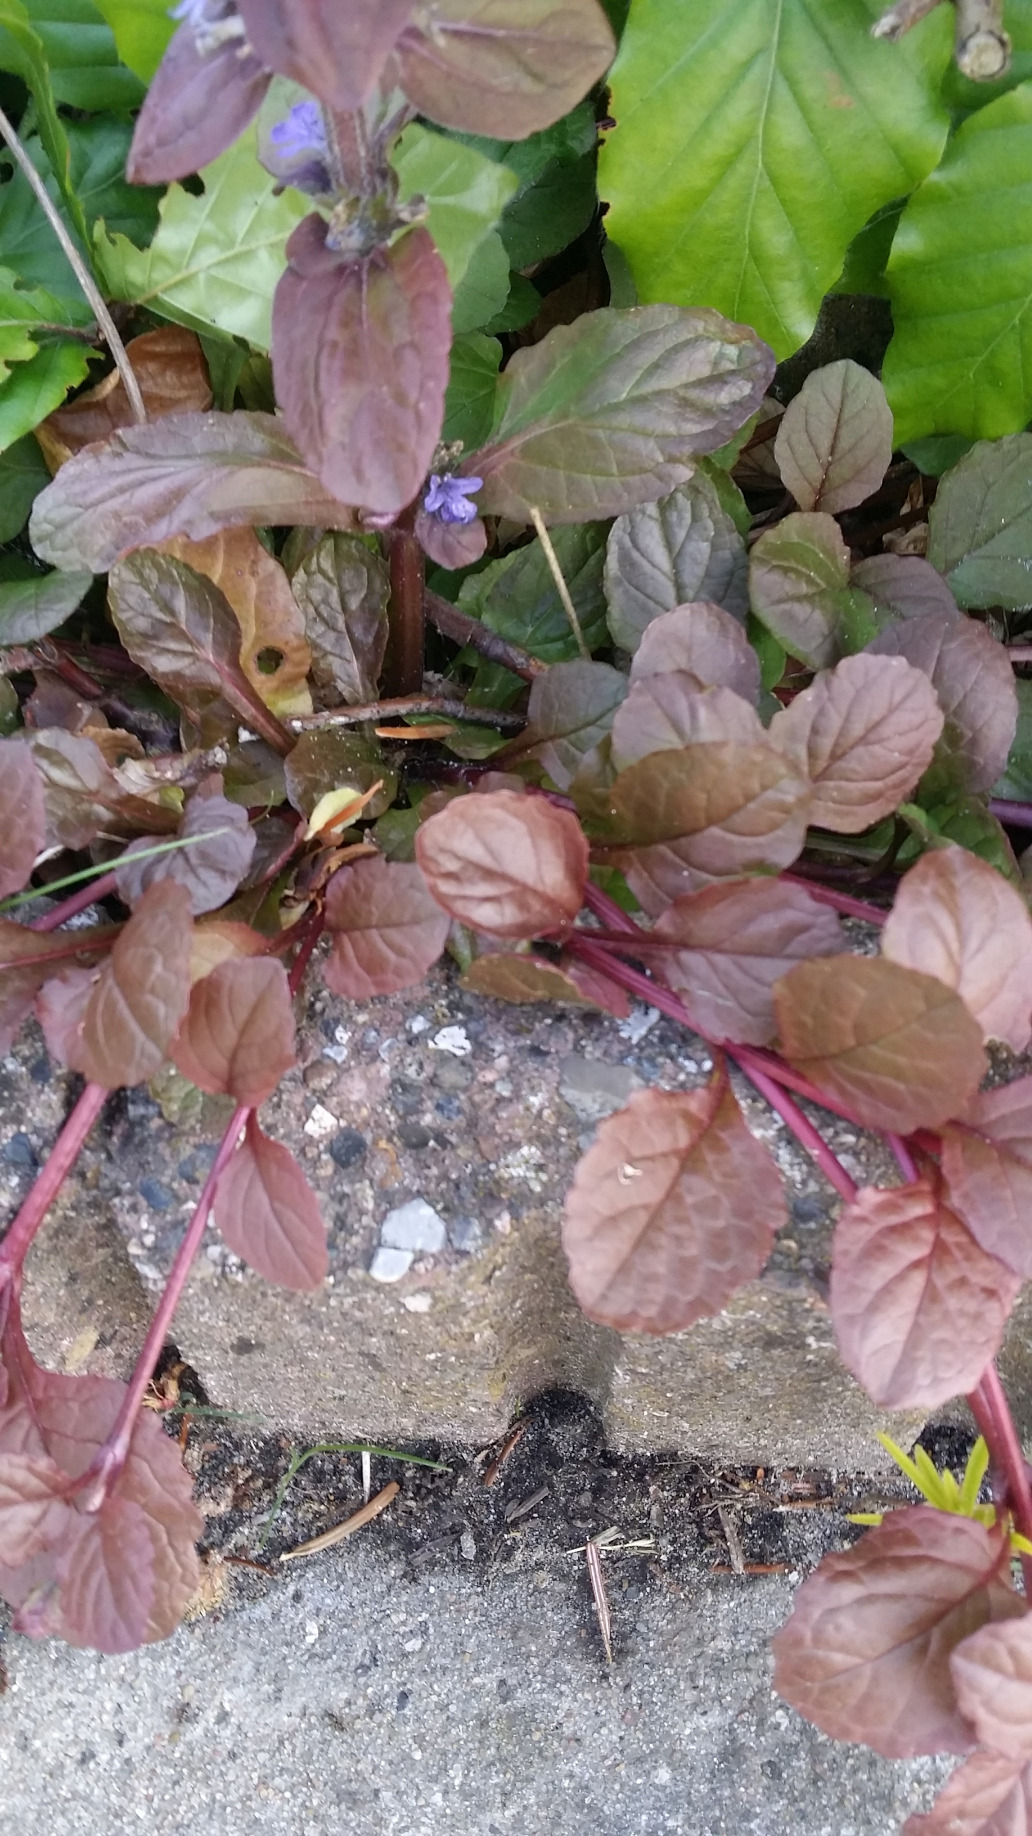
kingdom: Plantae
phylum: Tracheophyta
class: Magnoliopsida
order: Lamiales
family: Lamiaceae
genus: Ajuga
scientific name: Ajuga reptans
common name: Krybende læbeløs
